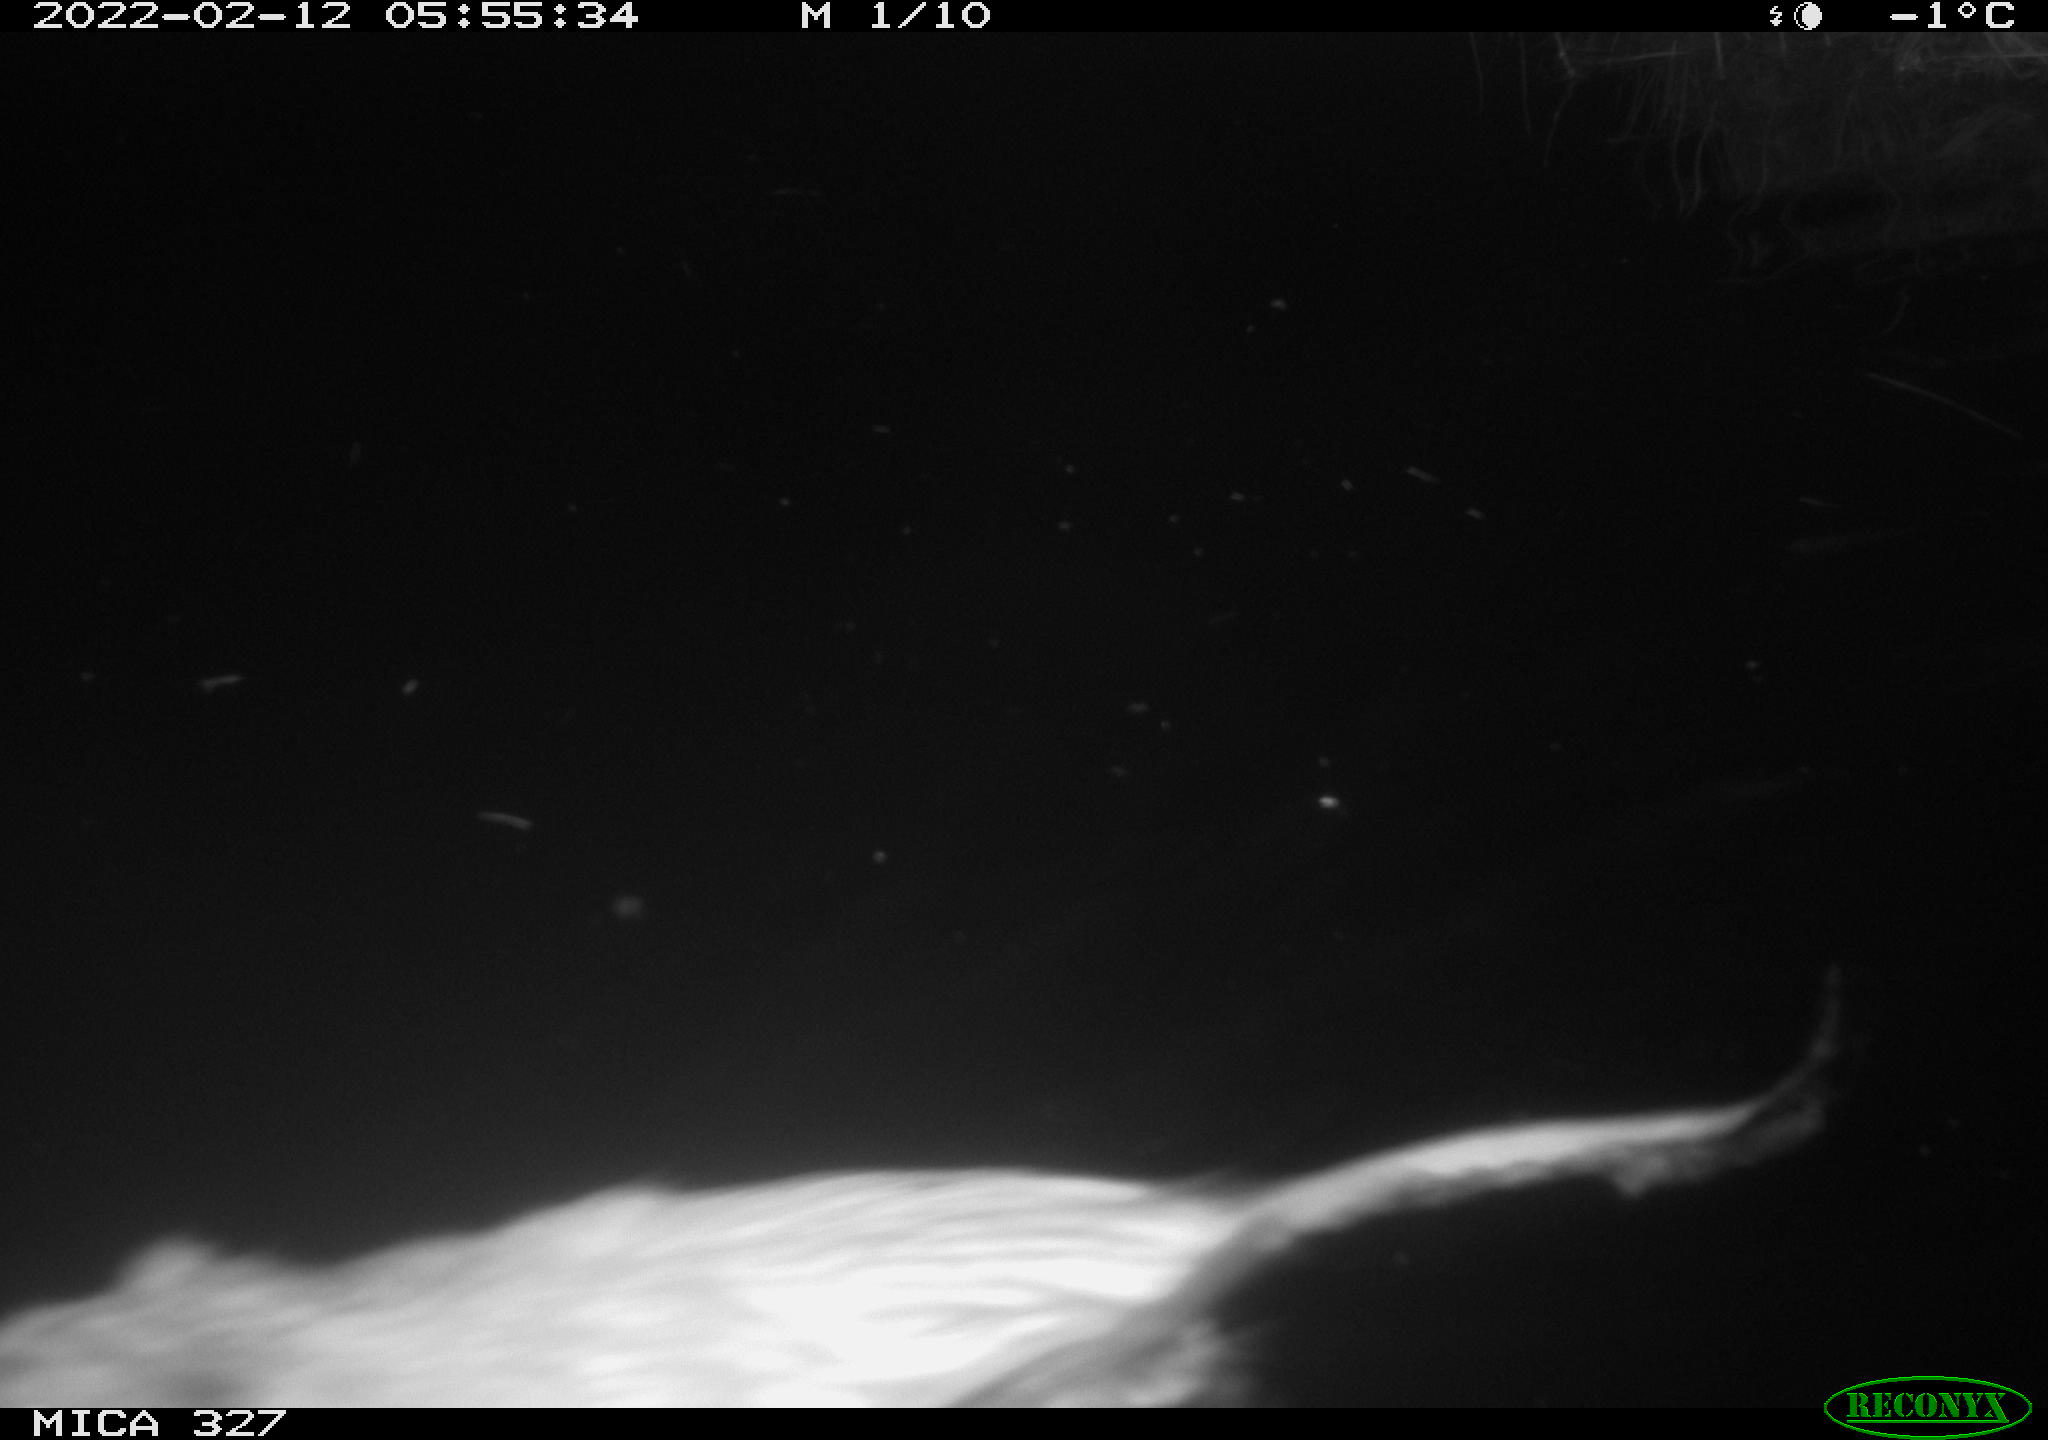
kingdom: Animalia
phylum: Chordata
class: Mammalia
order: Rodentia
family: Cricetidae
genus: Ondatra
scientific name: Ondatra zibethicus
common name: Muskrat
